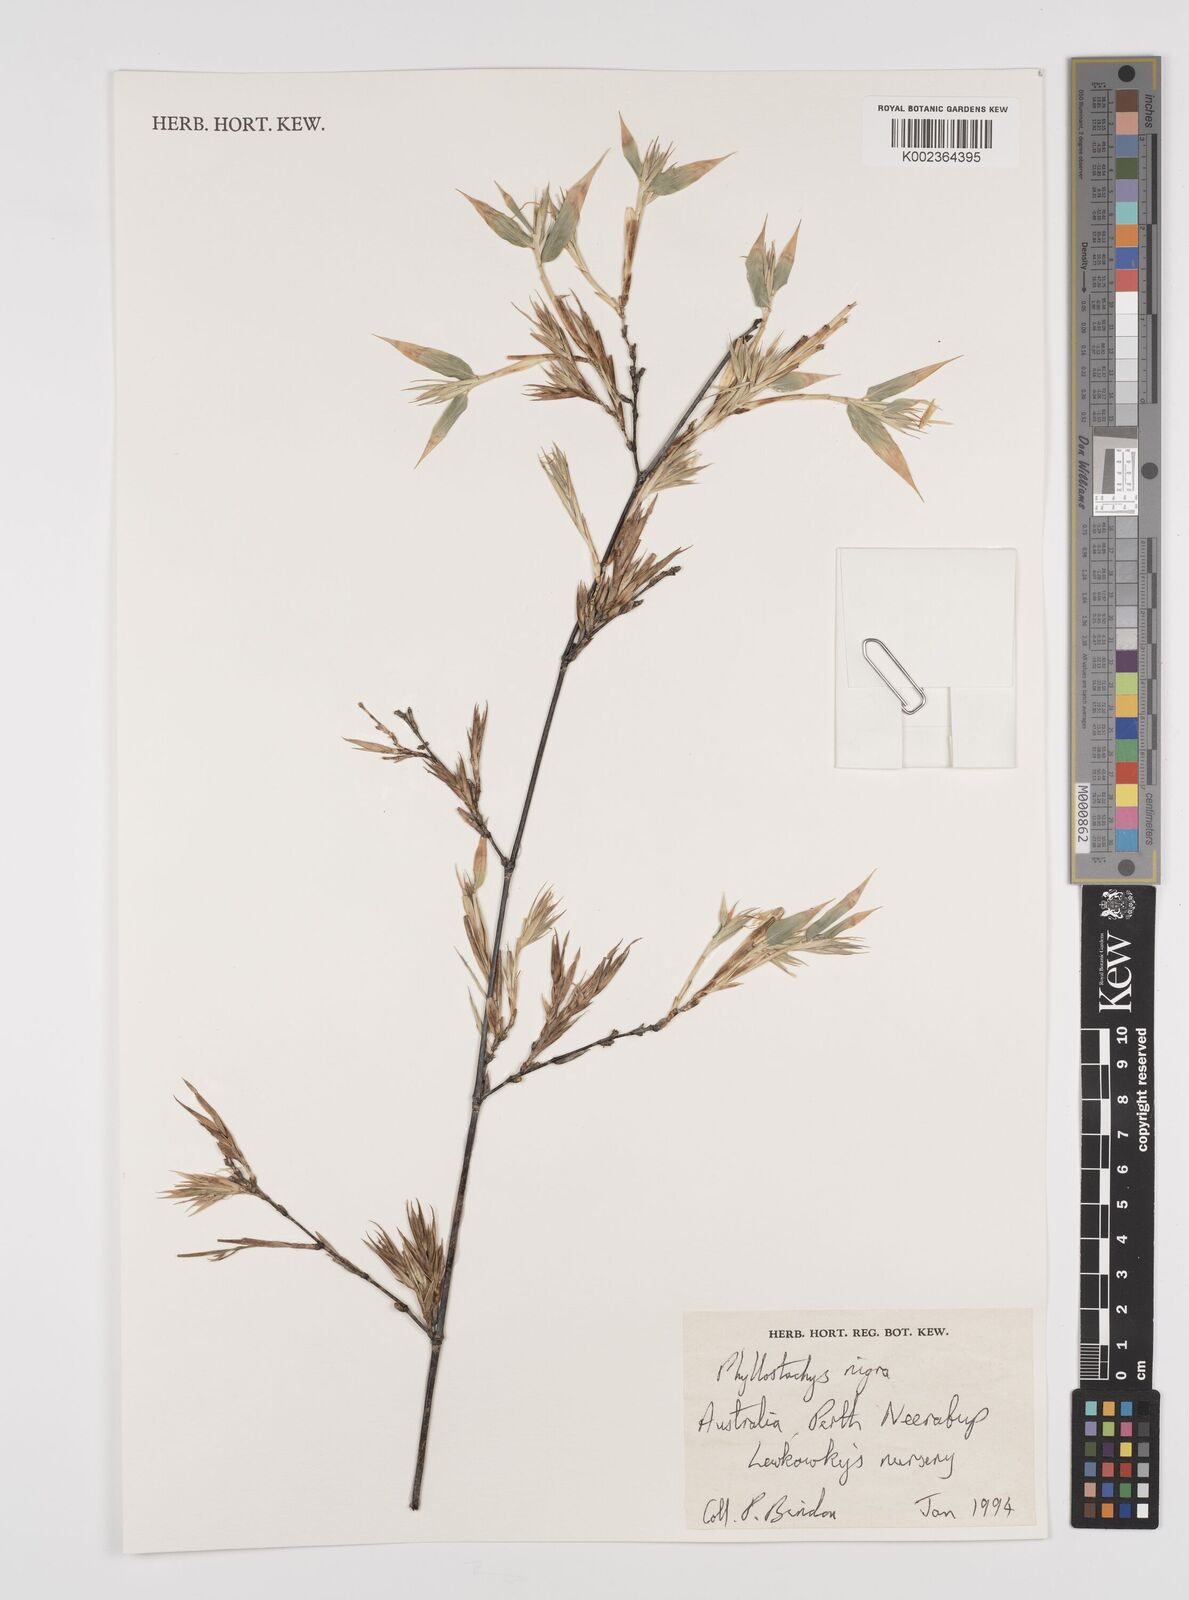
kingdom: Plantae
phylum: Tracheophyta
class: Liliopsida
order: Poales
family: Poaceae
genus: Phyllostachys
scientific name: Phyllostachys nigra
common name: Black bamboo
